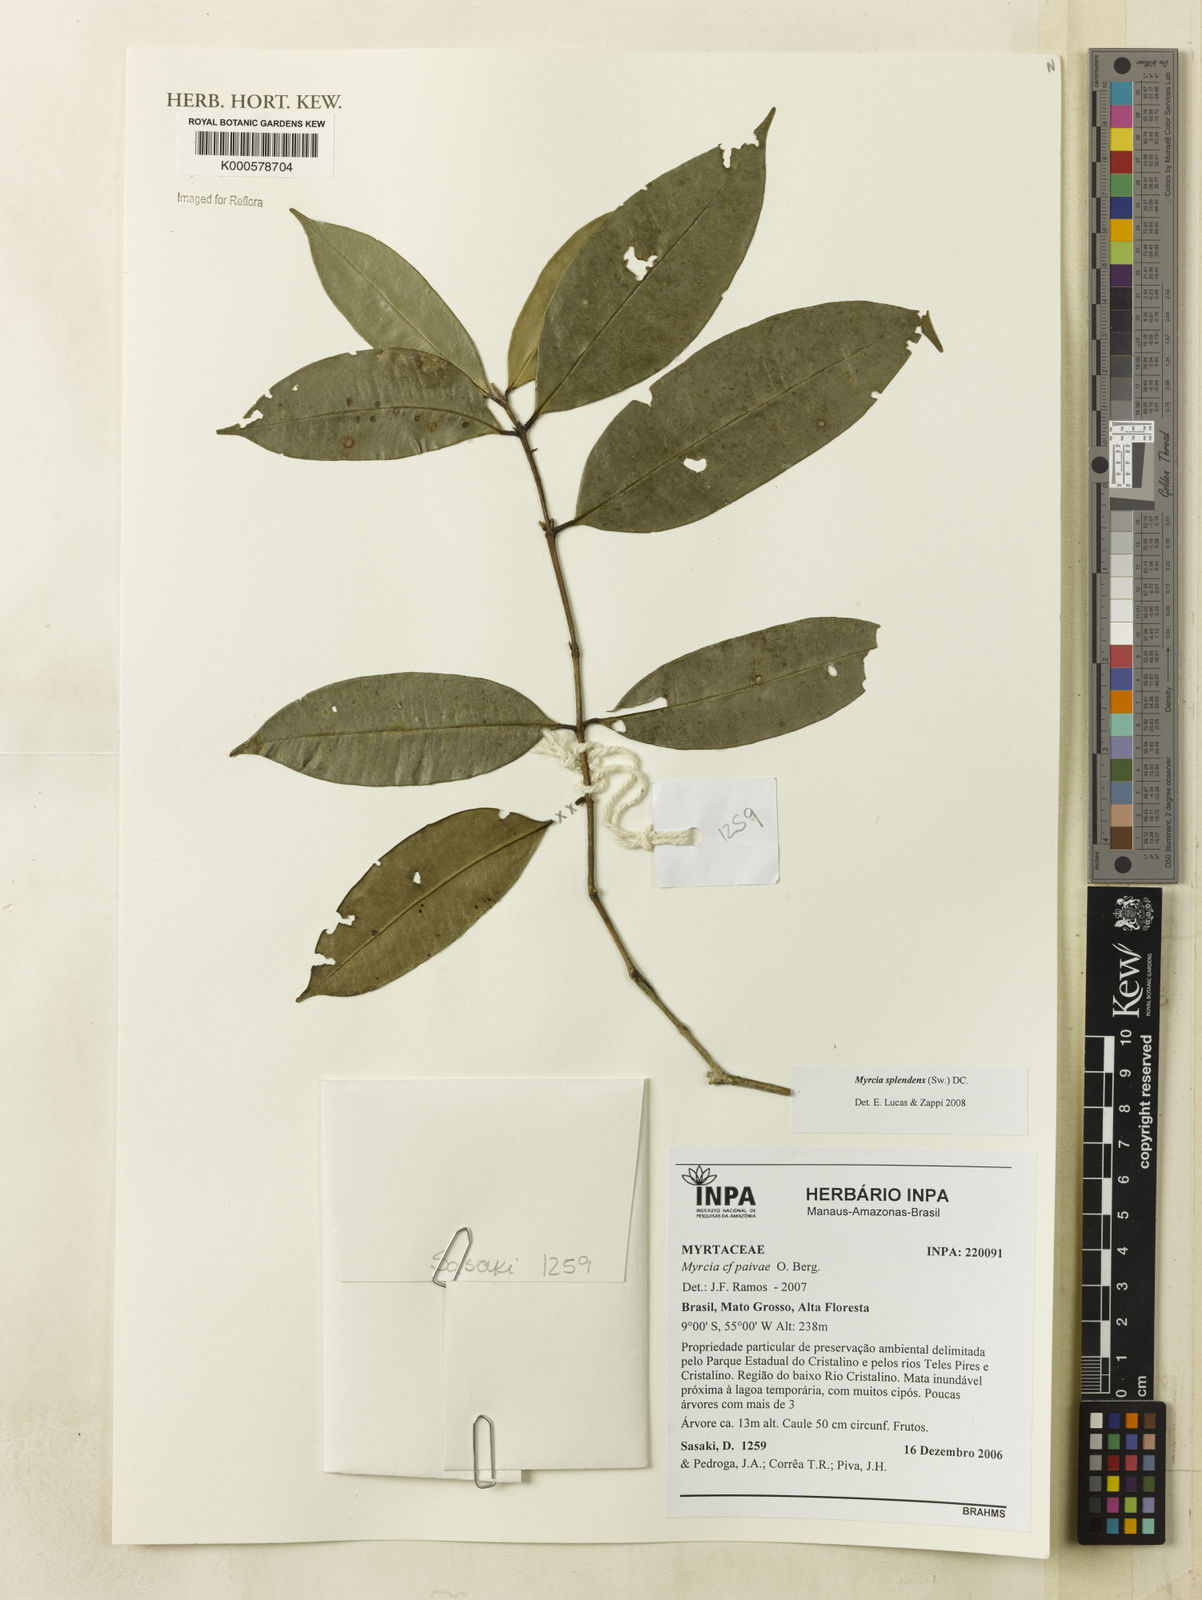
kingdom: Plantae
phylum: Tracheophyta
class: Magnoliopsida
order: Myrtales
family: Myrtaceae
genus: Myrcia
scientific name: Myrcia splendens
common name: Surinam cherry
